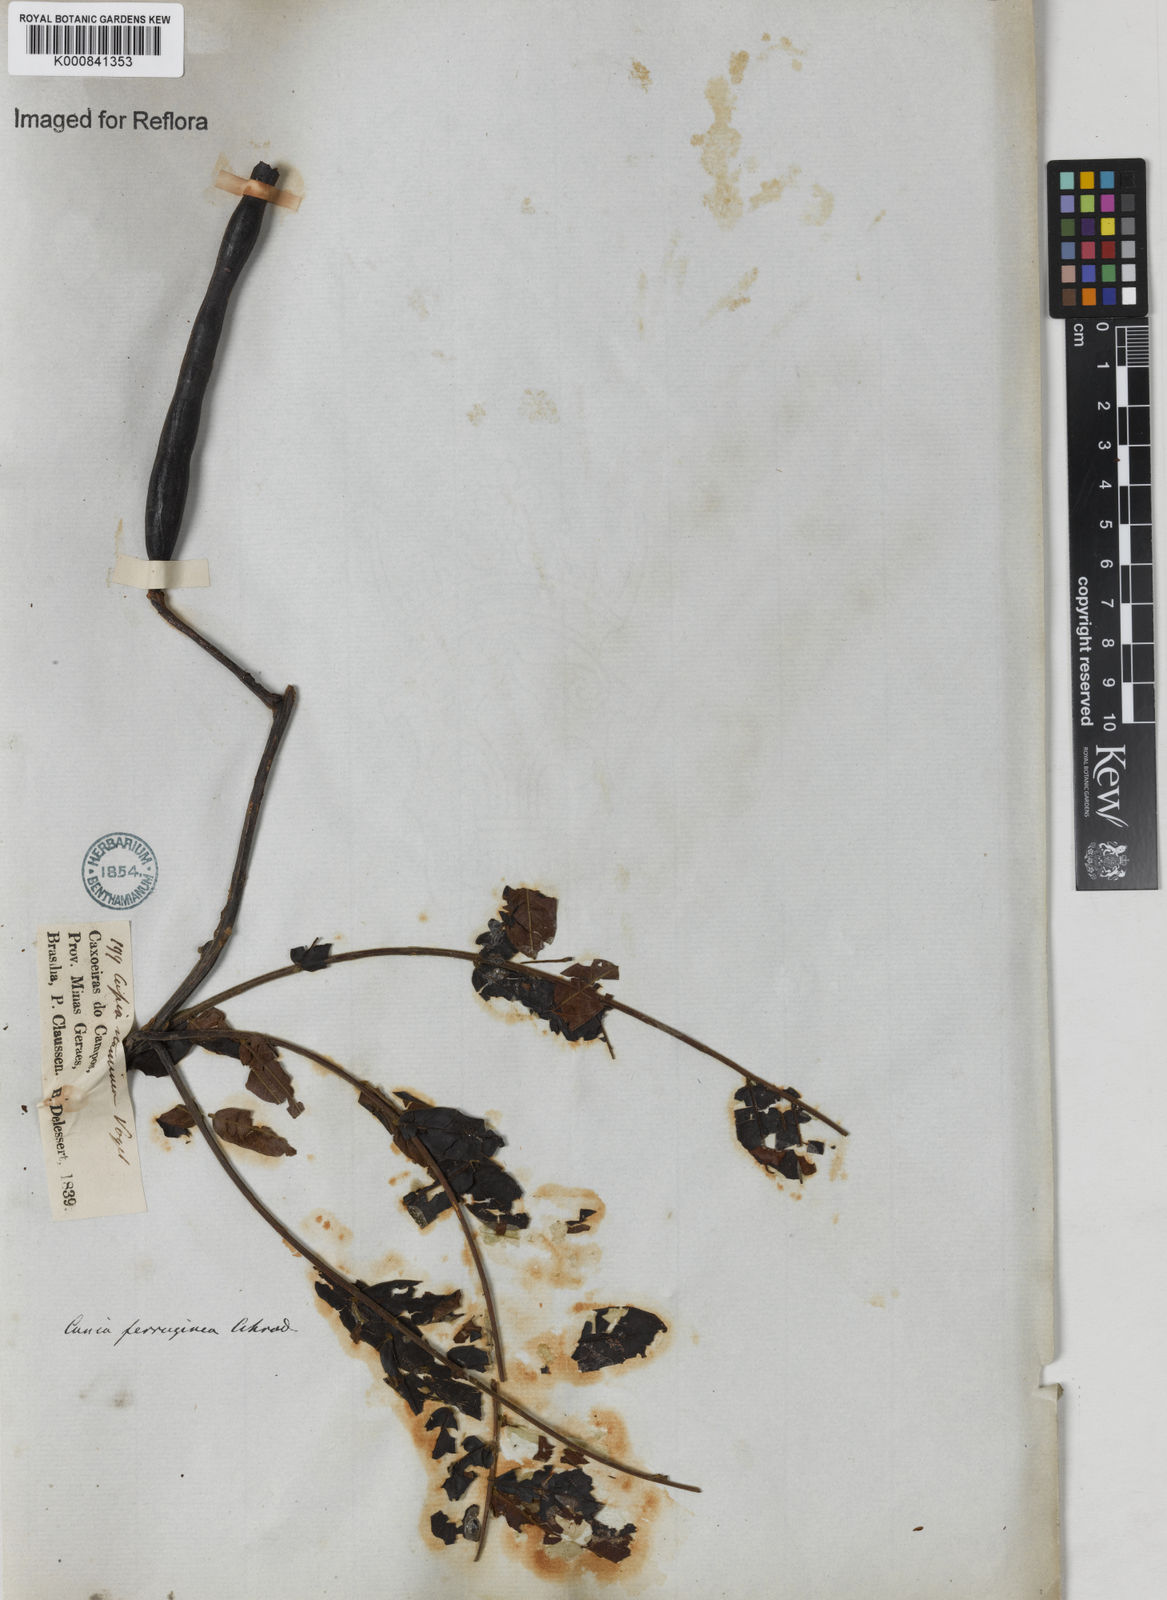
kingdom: Plantae
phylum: Tracheophyta
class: Magnoliopsida
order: Fabales
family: Fabaceae
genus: Cassia
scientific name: Cassia ferruginea
